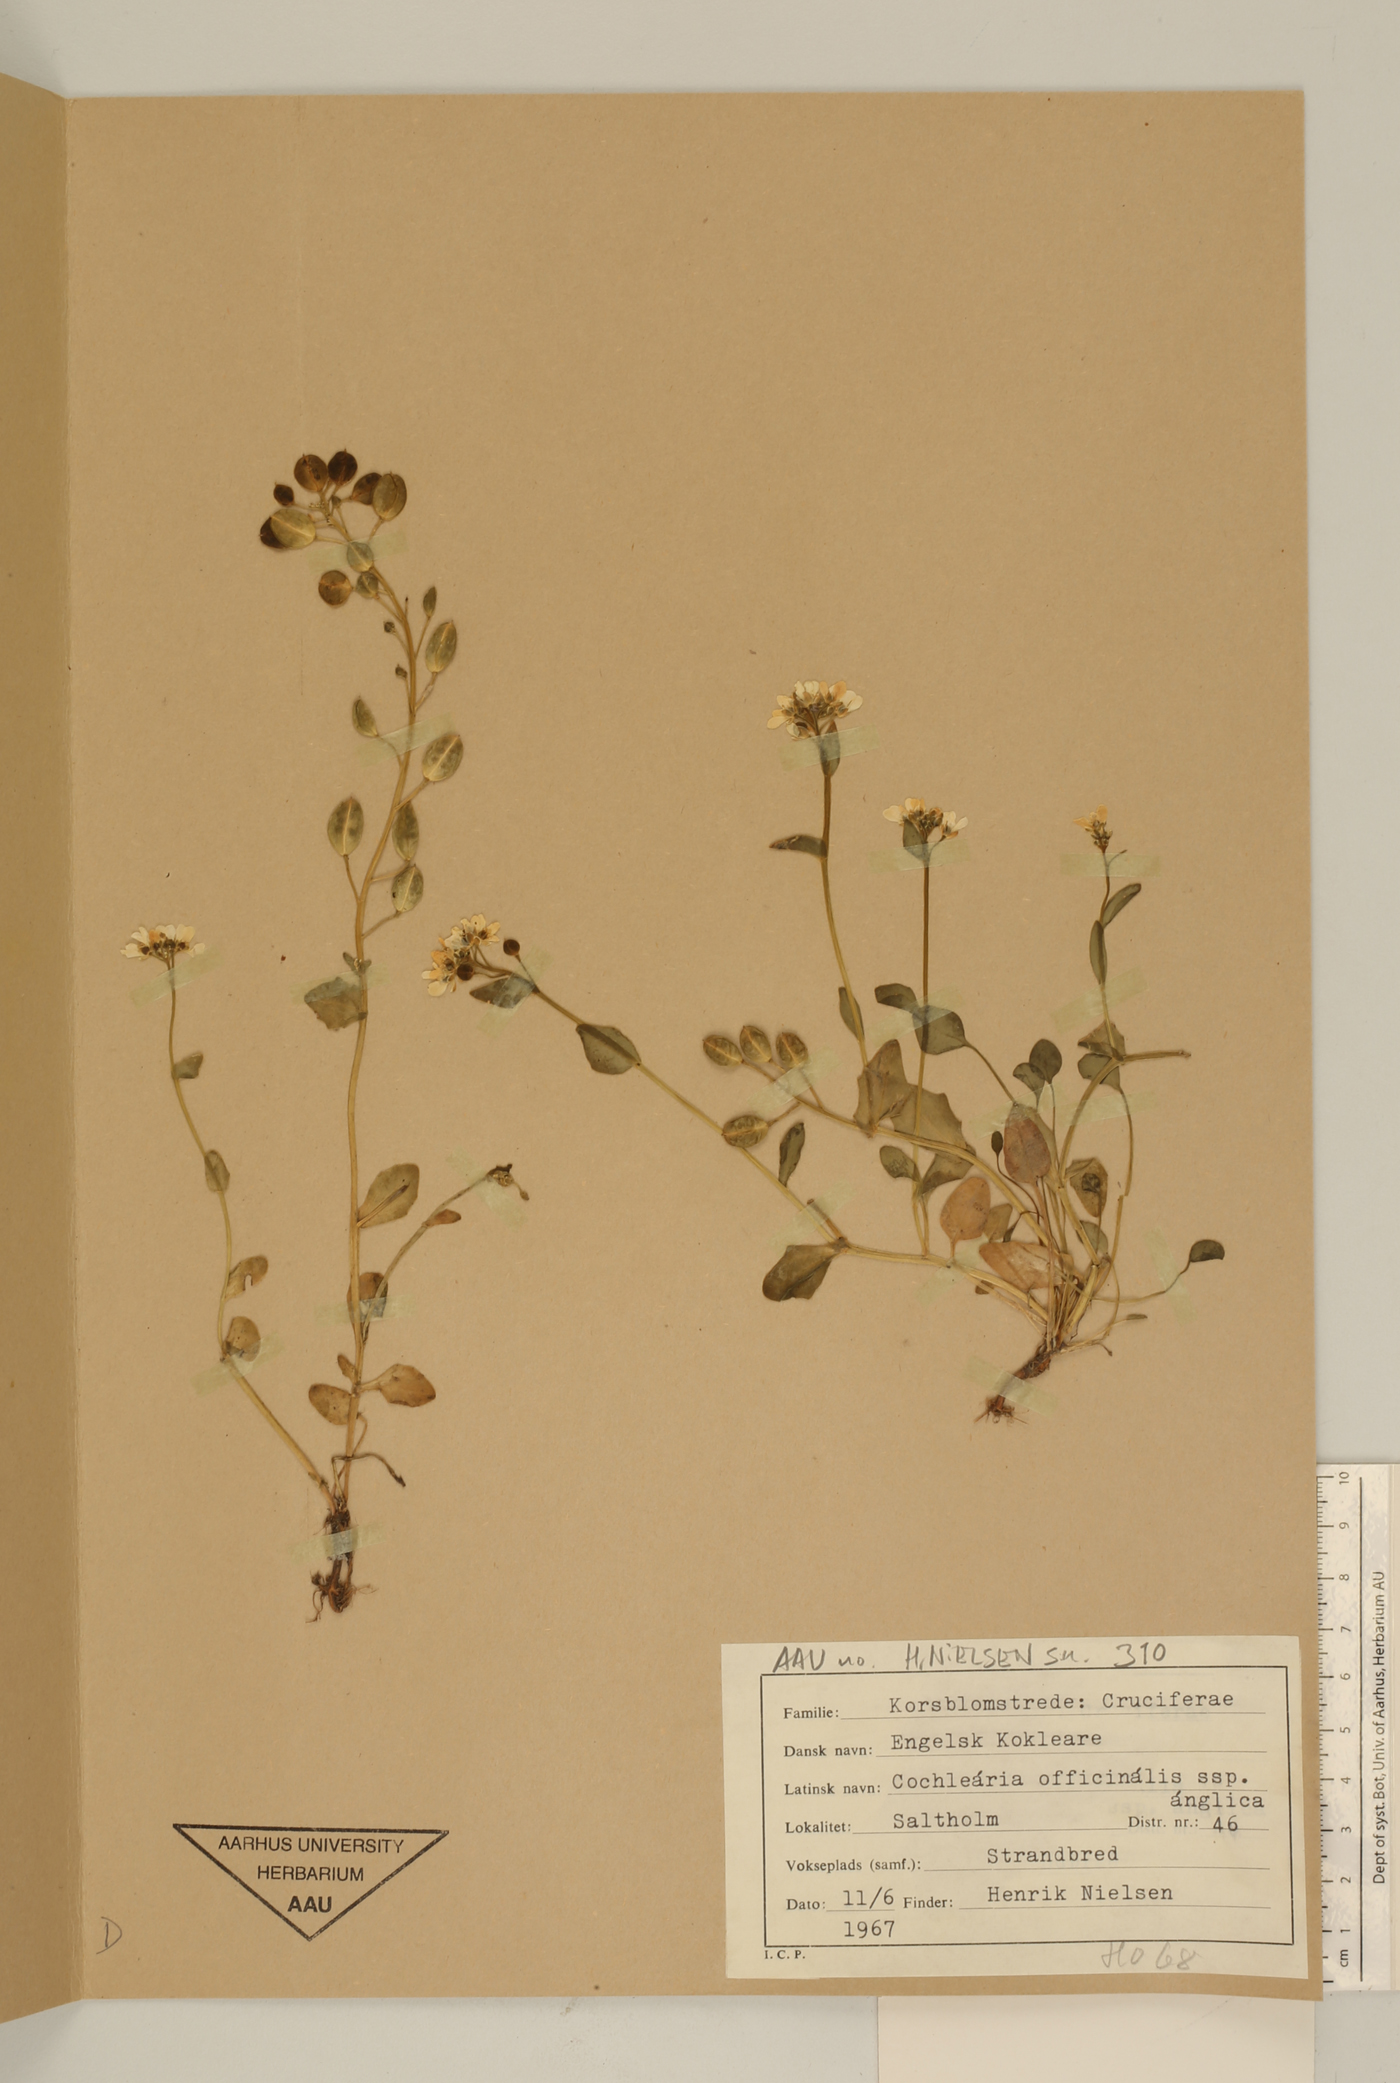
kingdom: Plantae
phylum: Tracheophyta
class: Magnoliopsida
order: Brassicales
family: Brassicaceae
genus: Cochlearia
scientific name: Cochlearia anglica
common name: English scurvygrass
